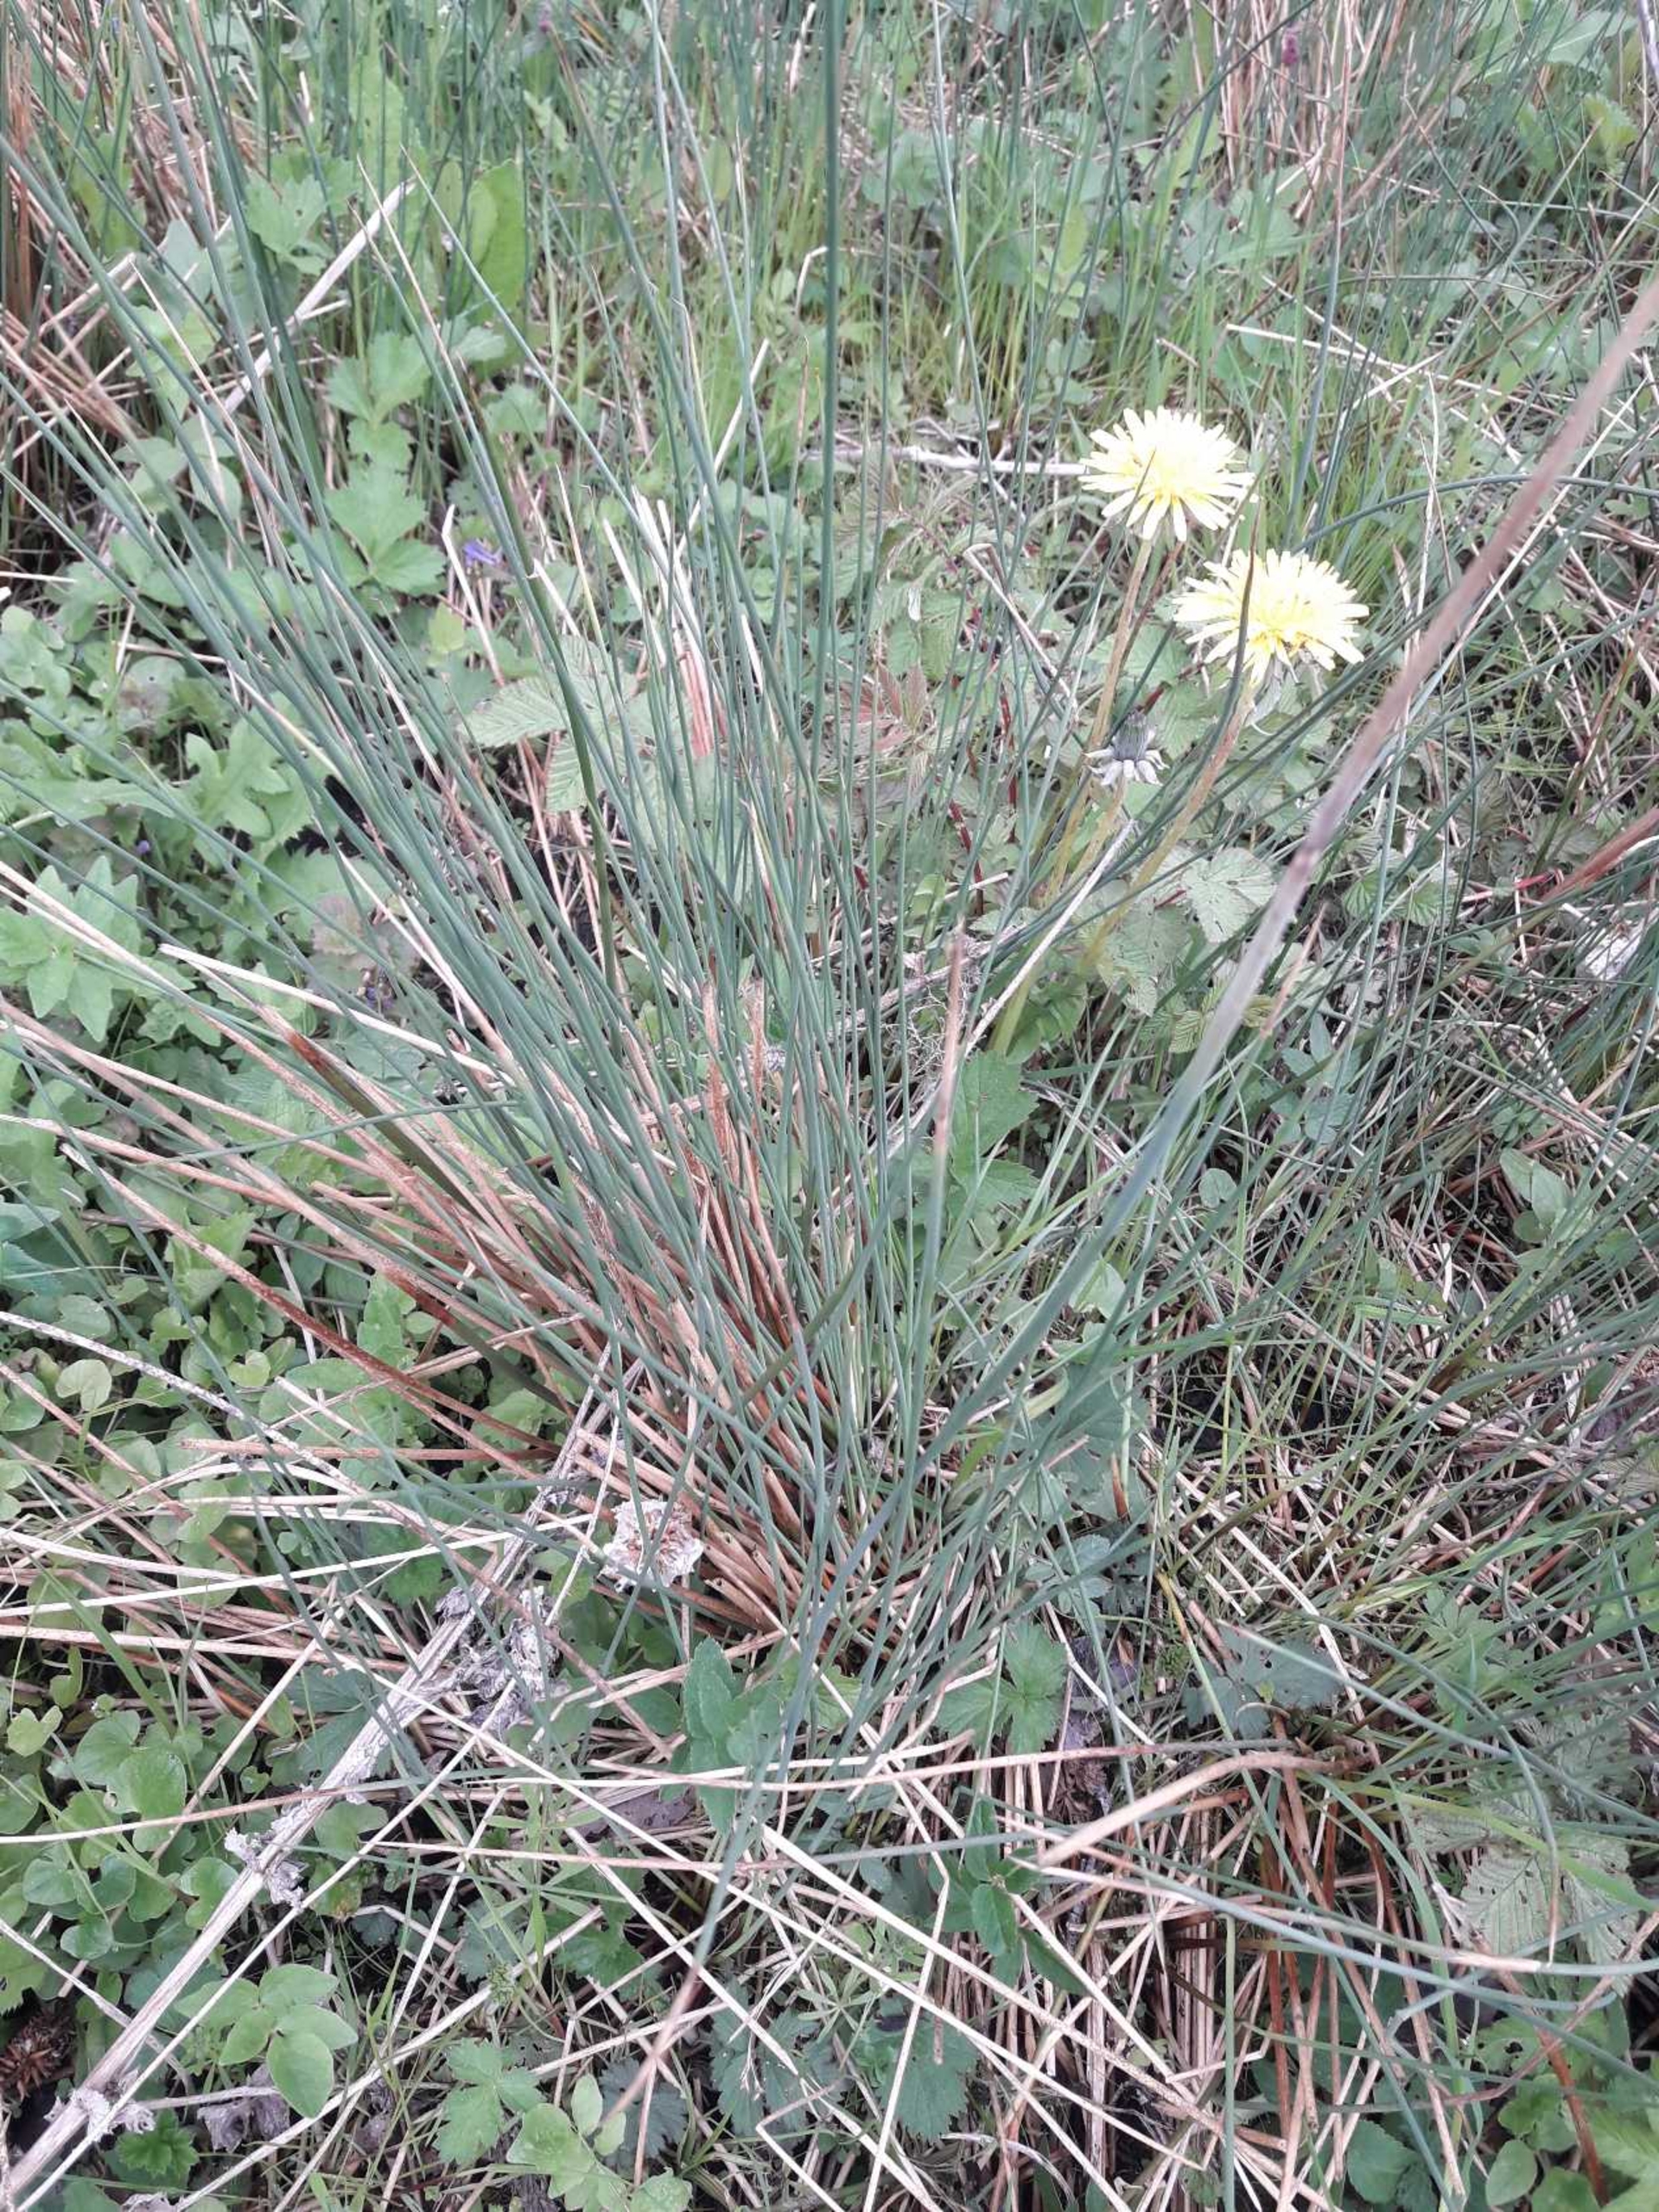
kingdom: Plantae
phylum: Tracheophyta
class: Liliopsida
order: Poales
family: Juncaceae
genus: Juncus
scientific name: Juncus inflexus
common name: Blågrå siv
